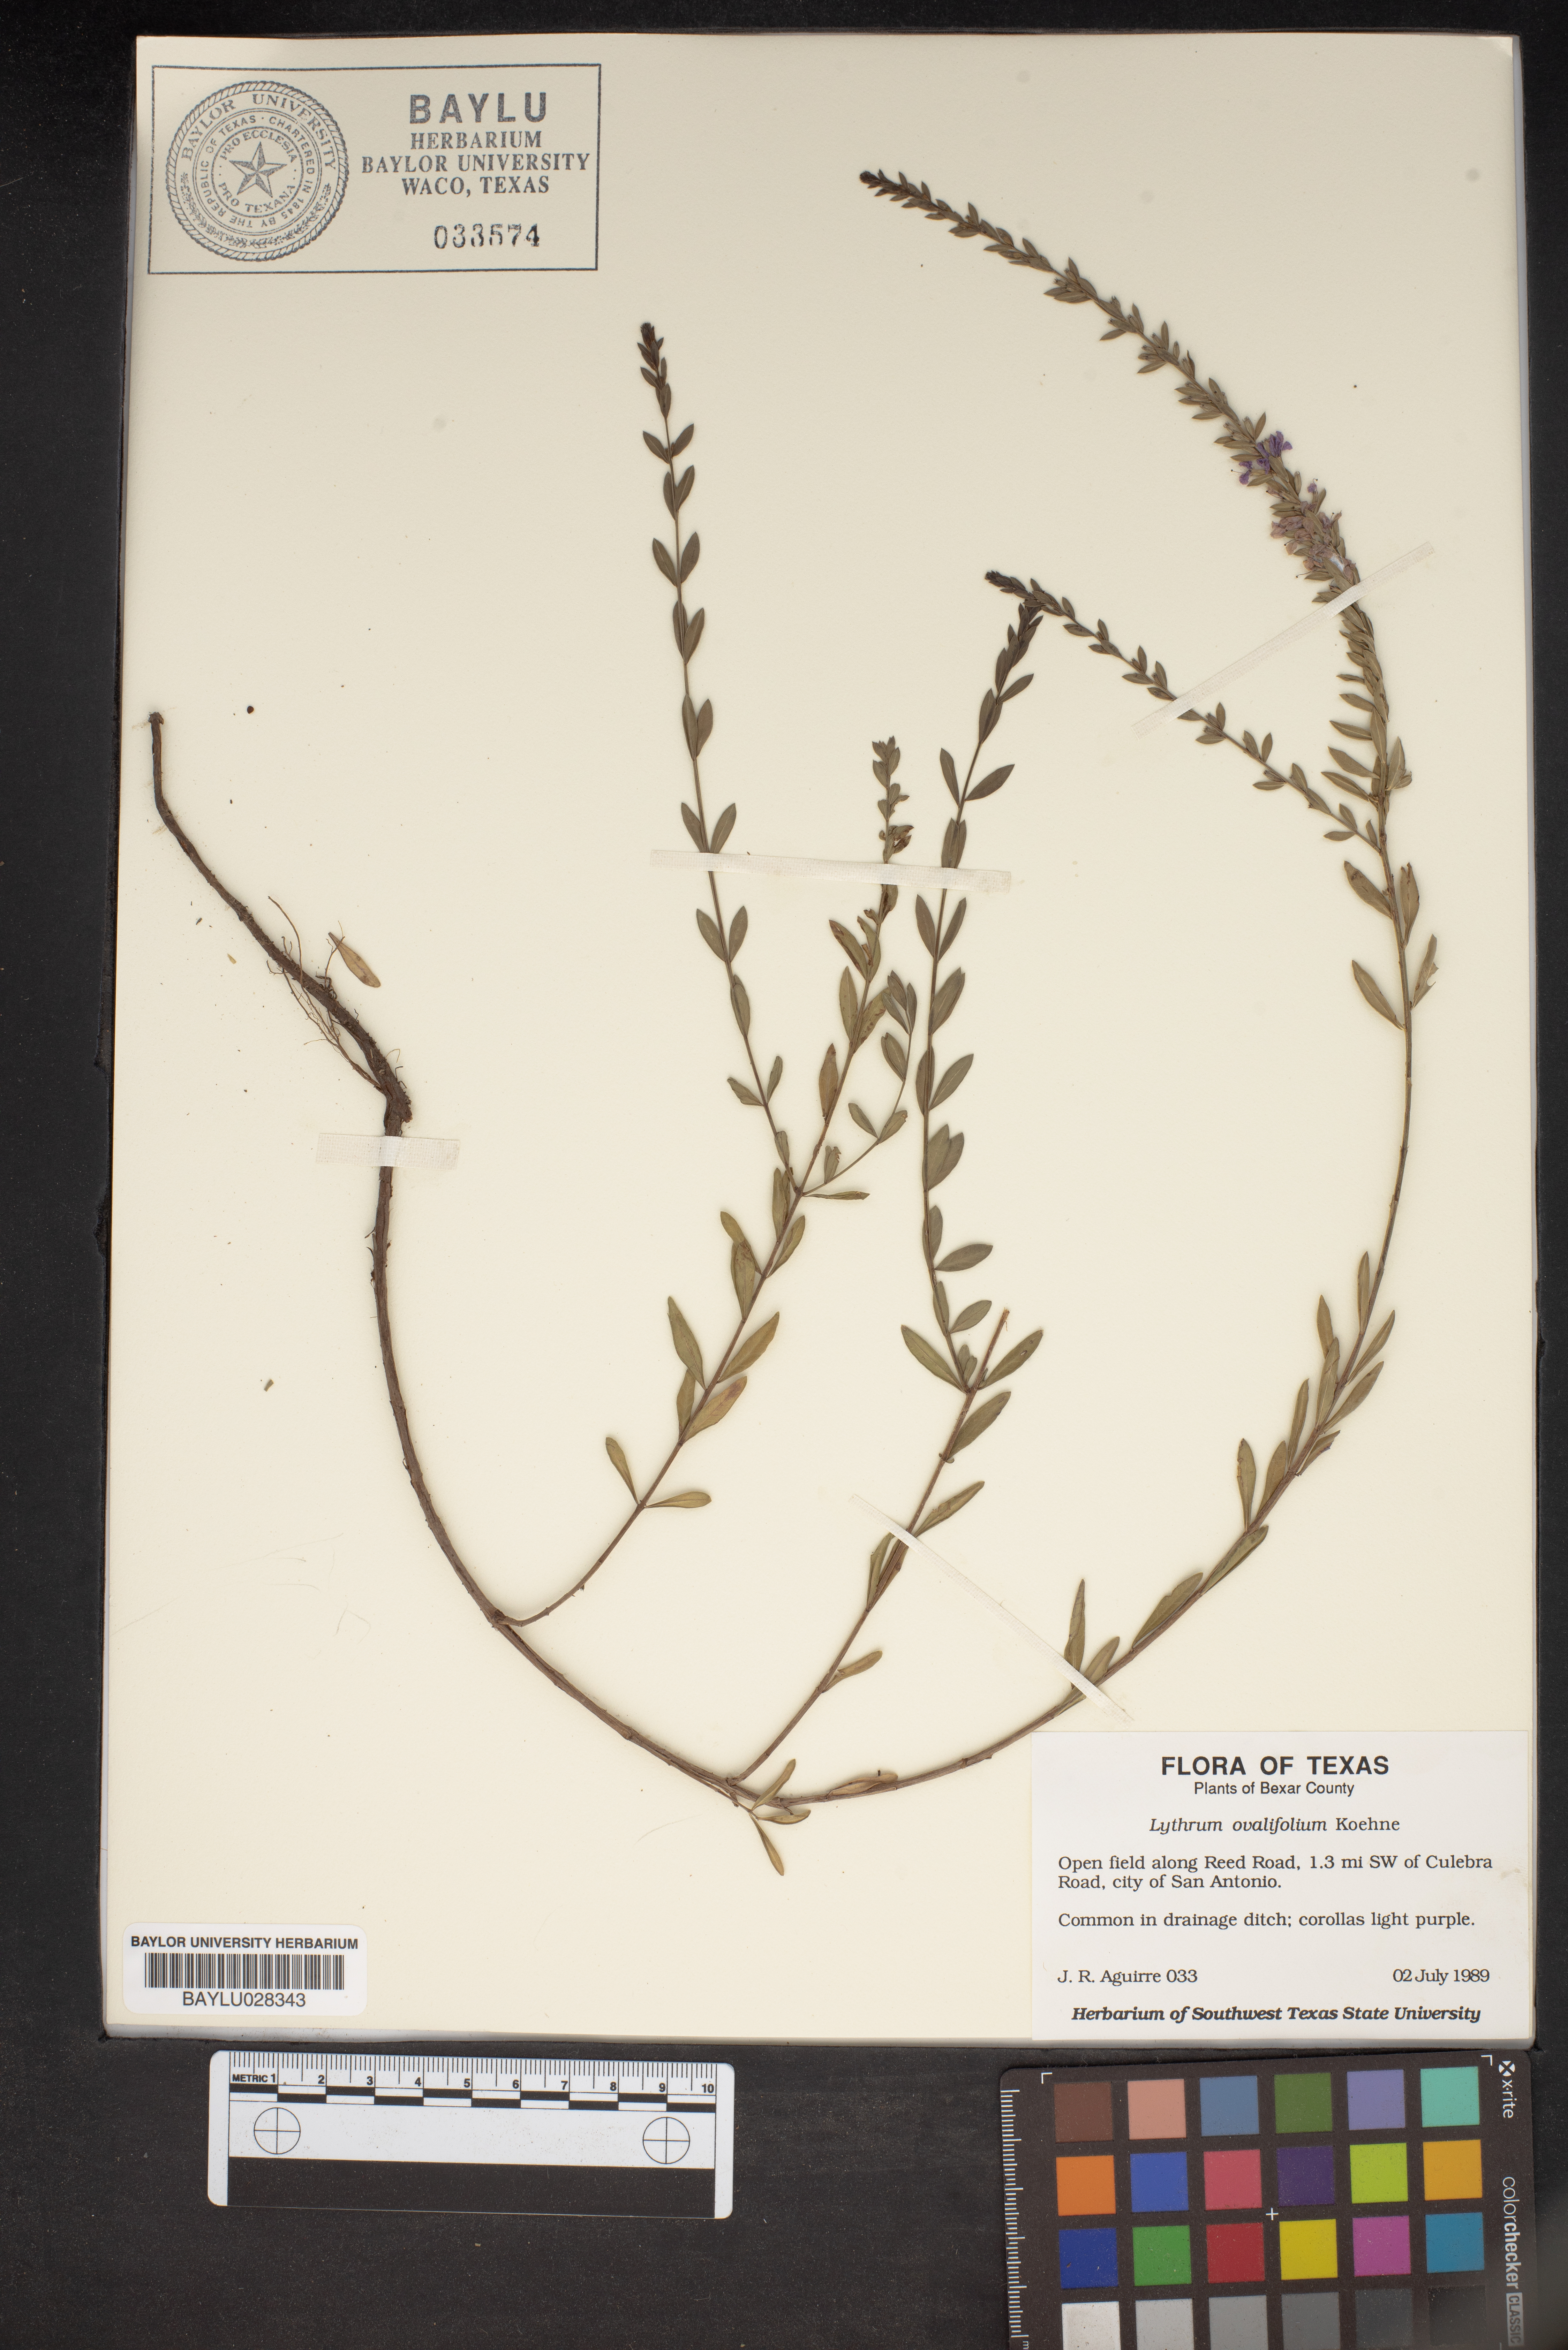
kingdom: Plantae
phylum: Tracheophyta
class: Magnoliopsida
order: Myrtales
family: Lythraceae
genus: Lythrum
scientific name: Lythrum ovalifolium
